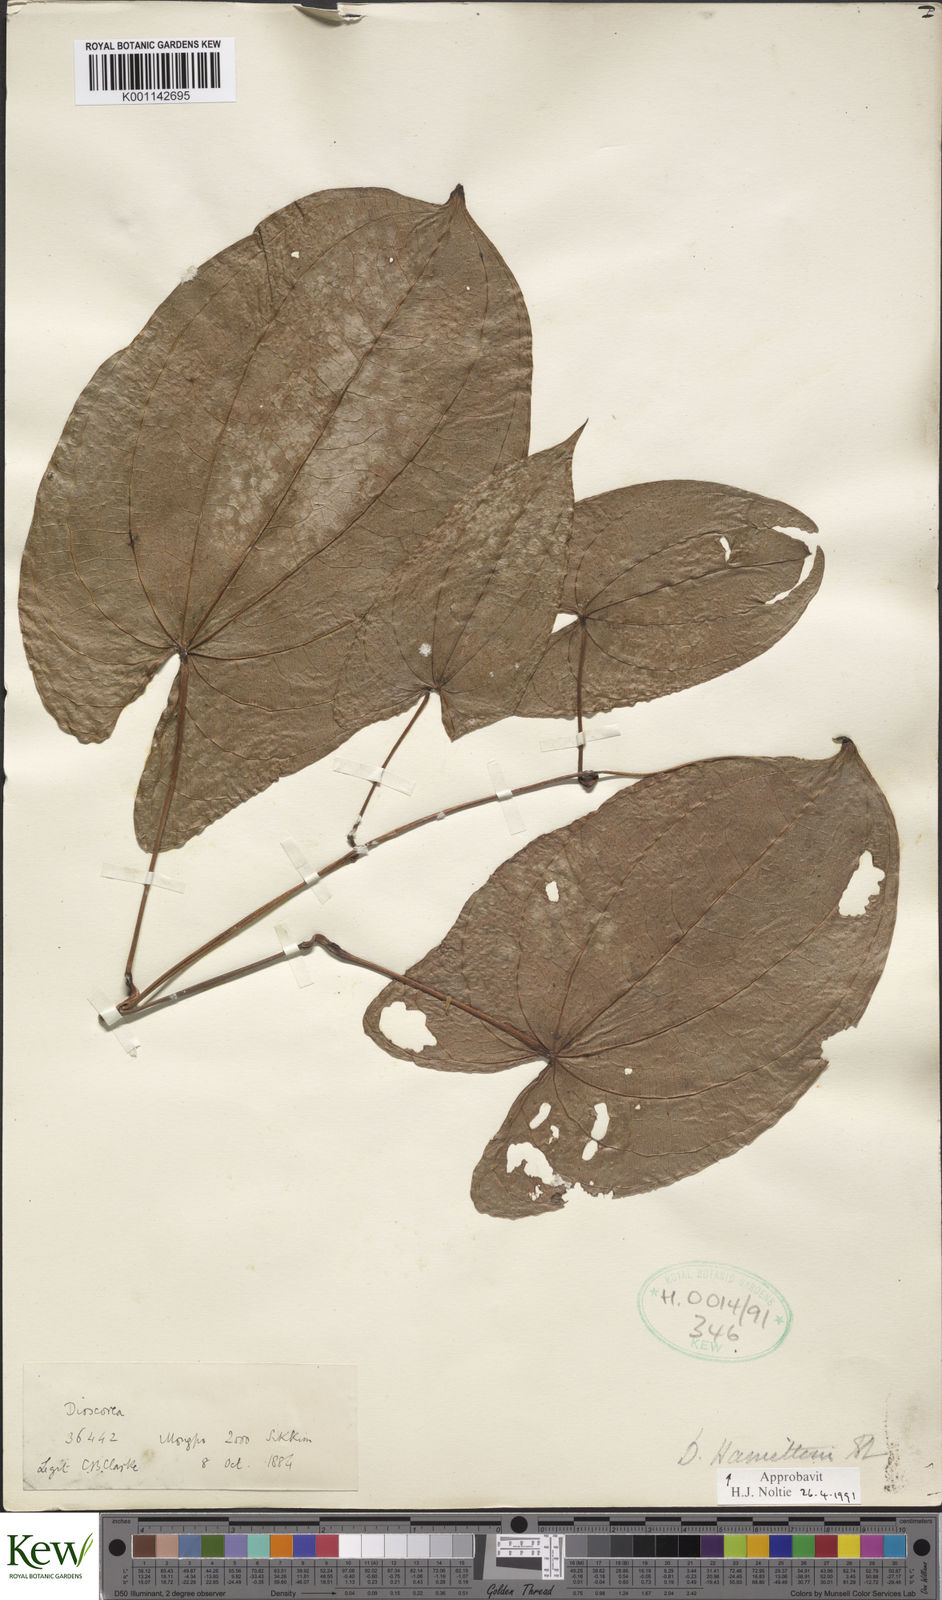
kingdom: Plantae
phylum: Tracheophyta
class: Liliopsida
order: Dioscoreales
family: Dioscoreaceae
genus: Dioscorea
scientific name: Dioscorea hamiltonii
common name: Mountain yam
